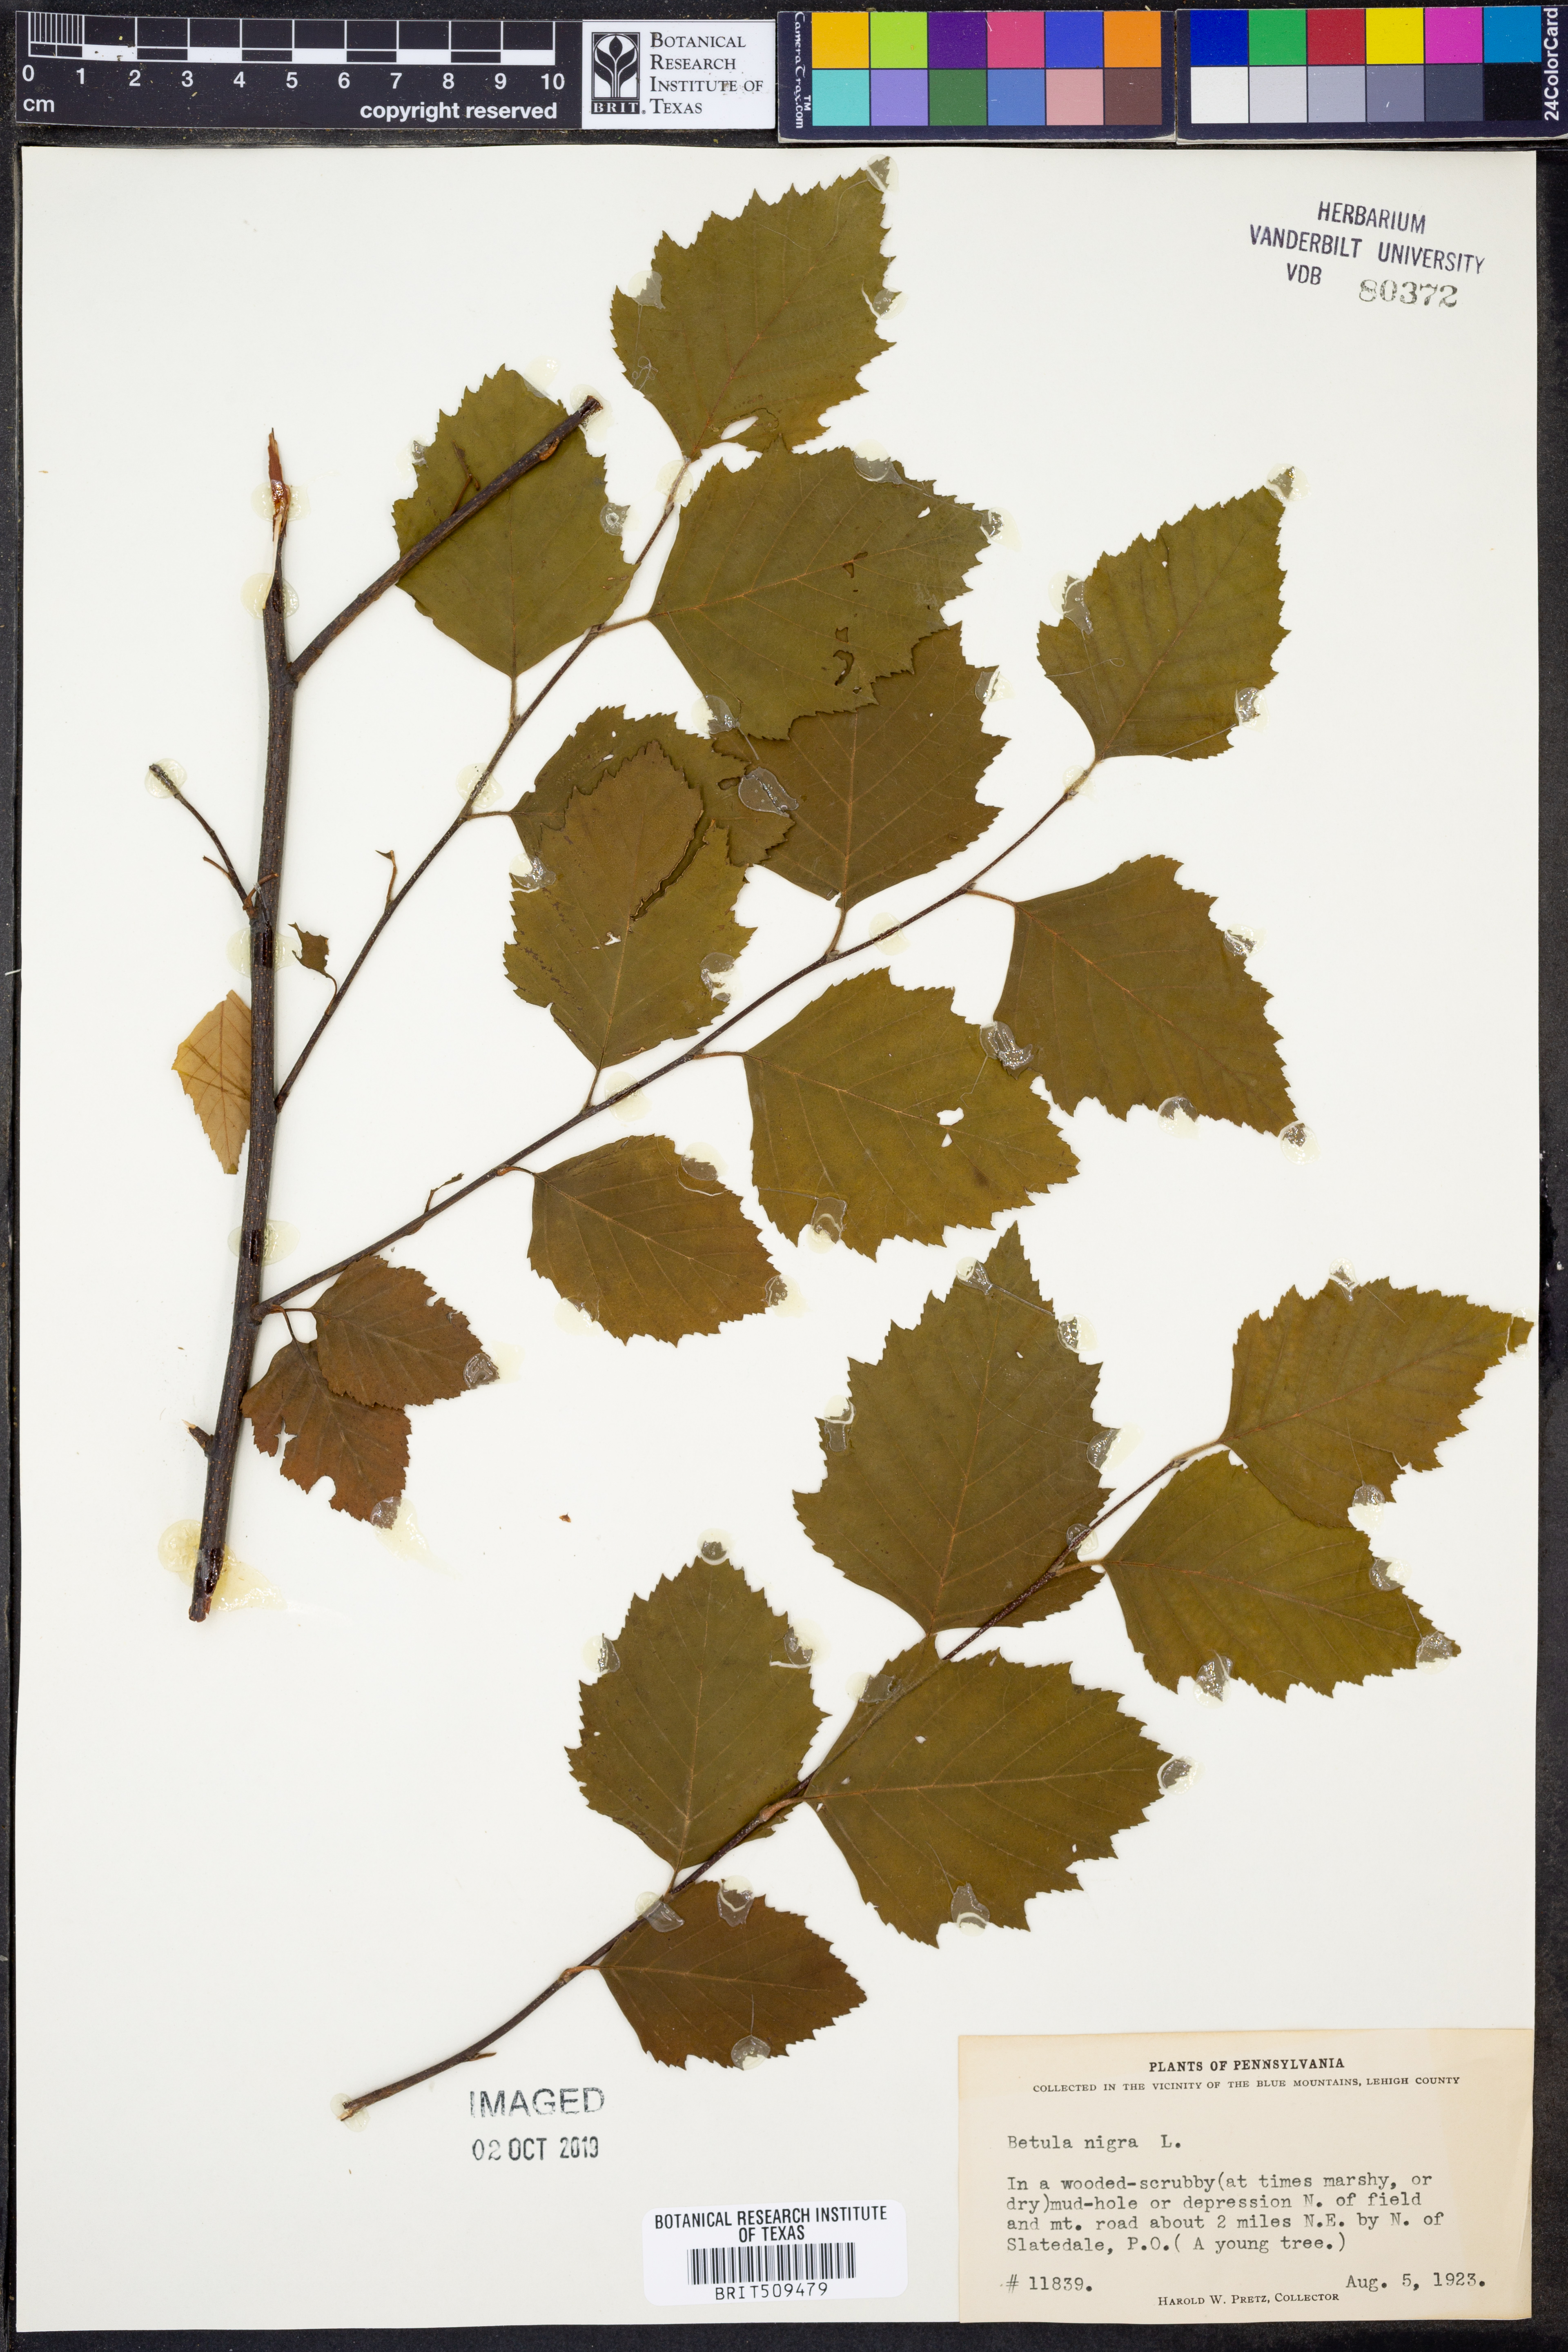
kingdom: Plantae
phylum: Tracheophyta
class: Magnoliopsida
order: Fagales
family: Betulaceae
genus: Betula
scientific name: Betula nigra
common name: Black birch
